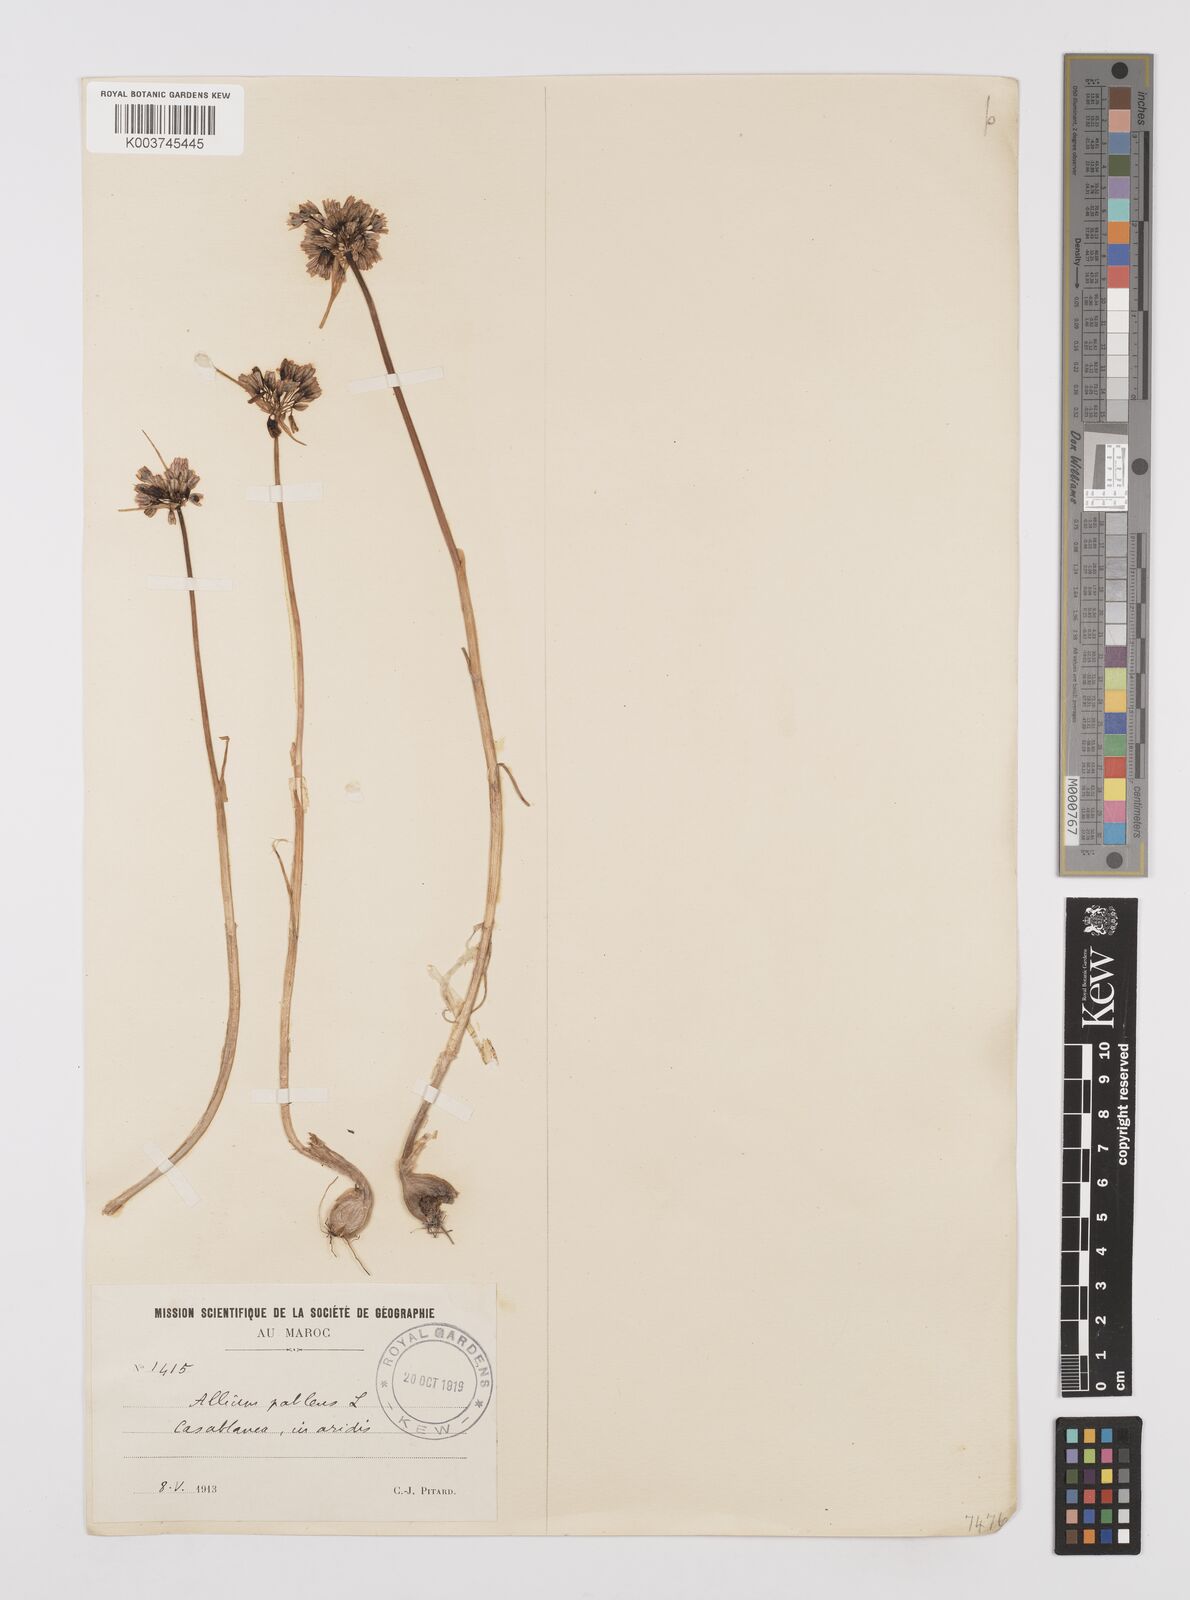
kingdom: Plantae
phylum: Tracheophyta
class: Liliopsida
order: Asparagales
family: Amaryllidaceae
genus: Allium
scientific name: Allium paniculatum
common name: Pale garlic
